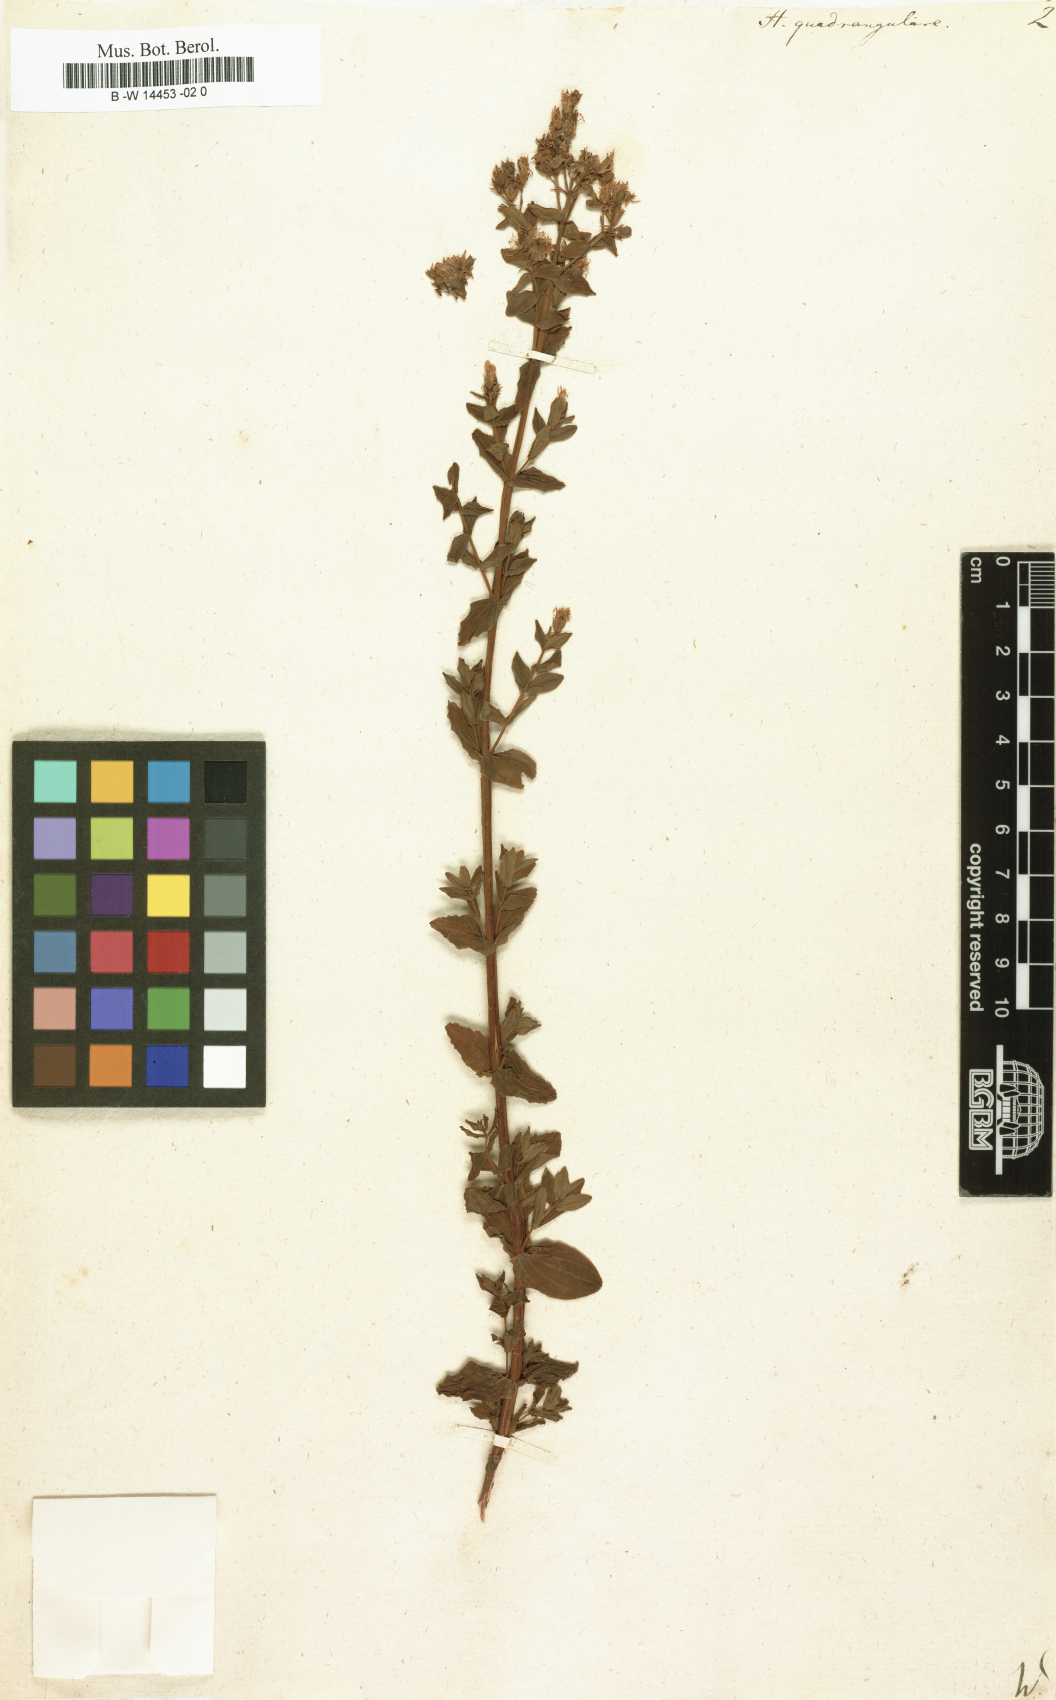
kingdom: Plantae
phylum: Tracheophyta
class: Magnoliopsida
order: Malpighiales
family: Hypericaceae
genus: Hypericum
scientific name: Hypericum quadrangulare
